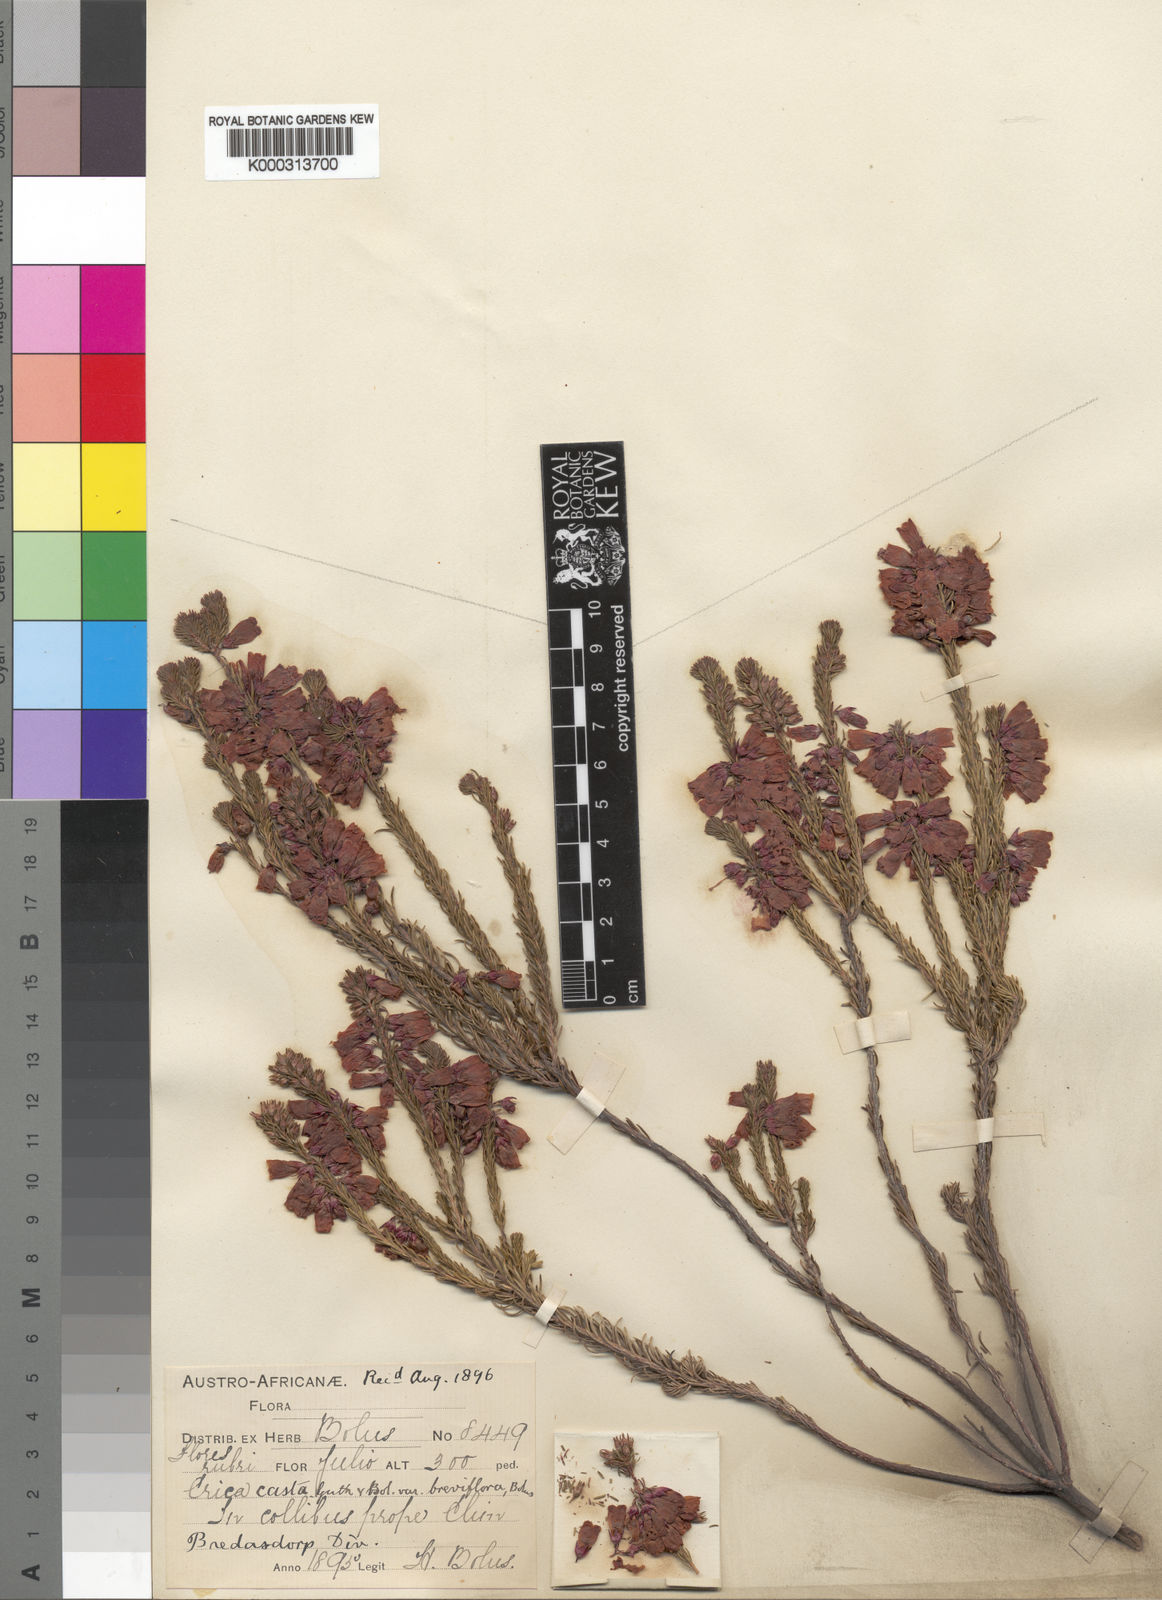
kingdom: Plantae
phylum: Tracheophyta
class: Magnoliopsida
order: Ericales
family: Ericaceae
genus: Erica
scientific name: Erica regia
